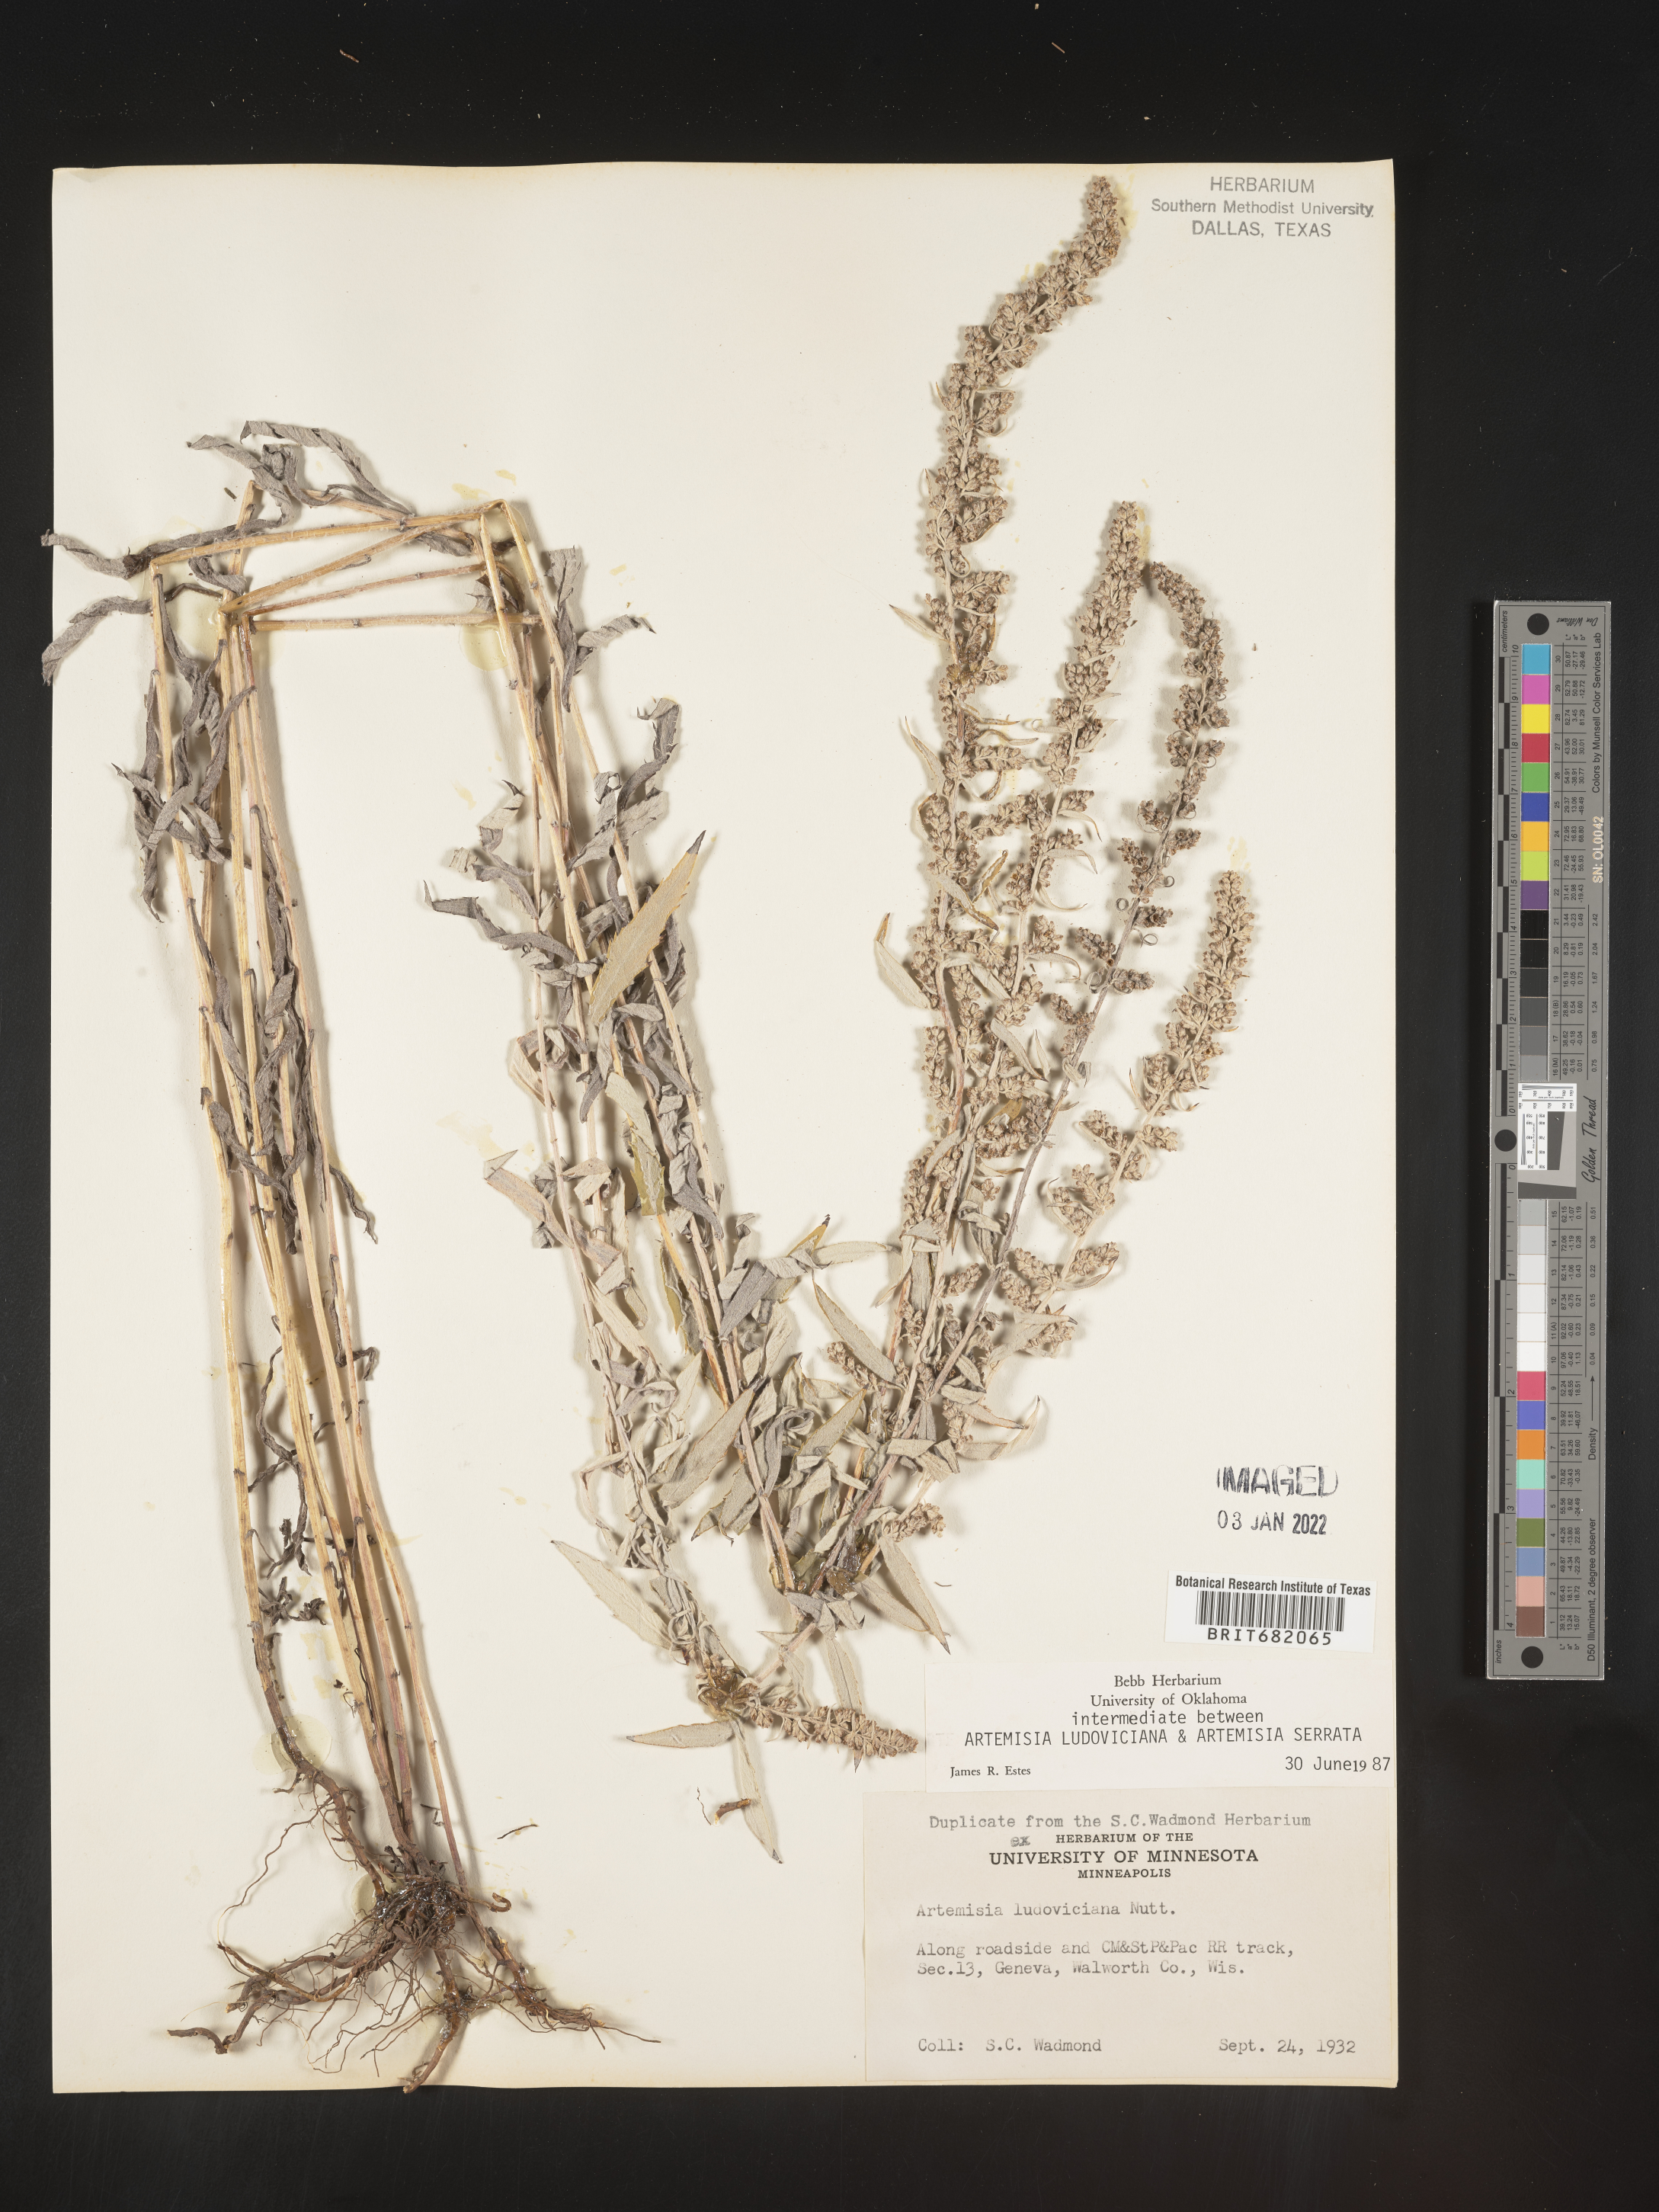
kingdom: Plantae
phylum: Tracheophyta
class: Magnoliopsida
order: Asterales
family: Asteraceae
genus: Artemisia
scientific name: Artemisia ludoviciana
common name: Western mugwort
